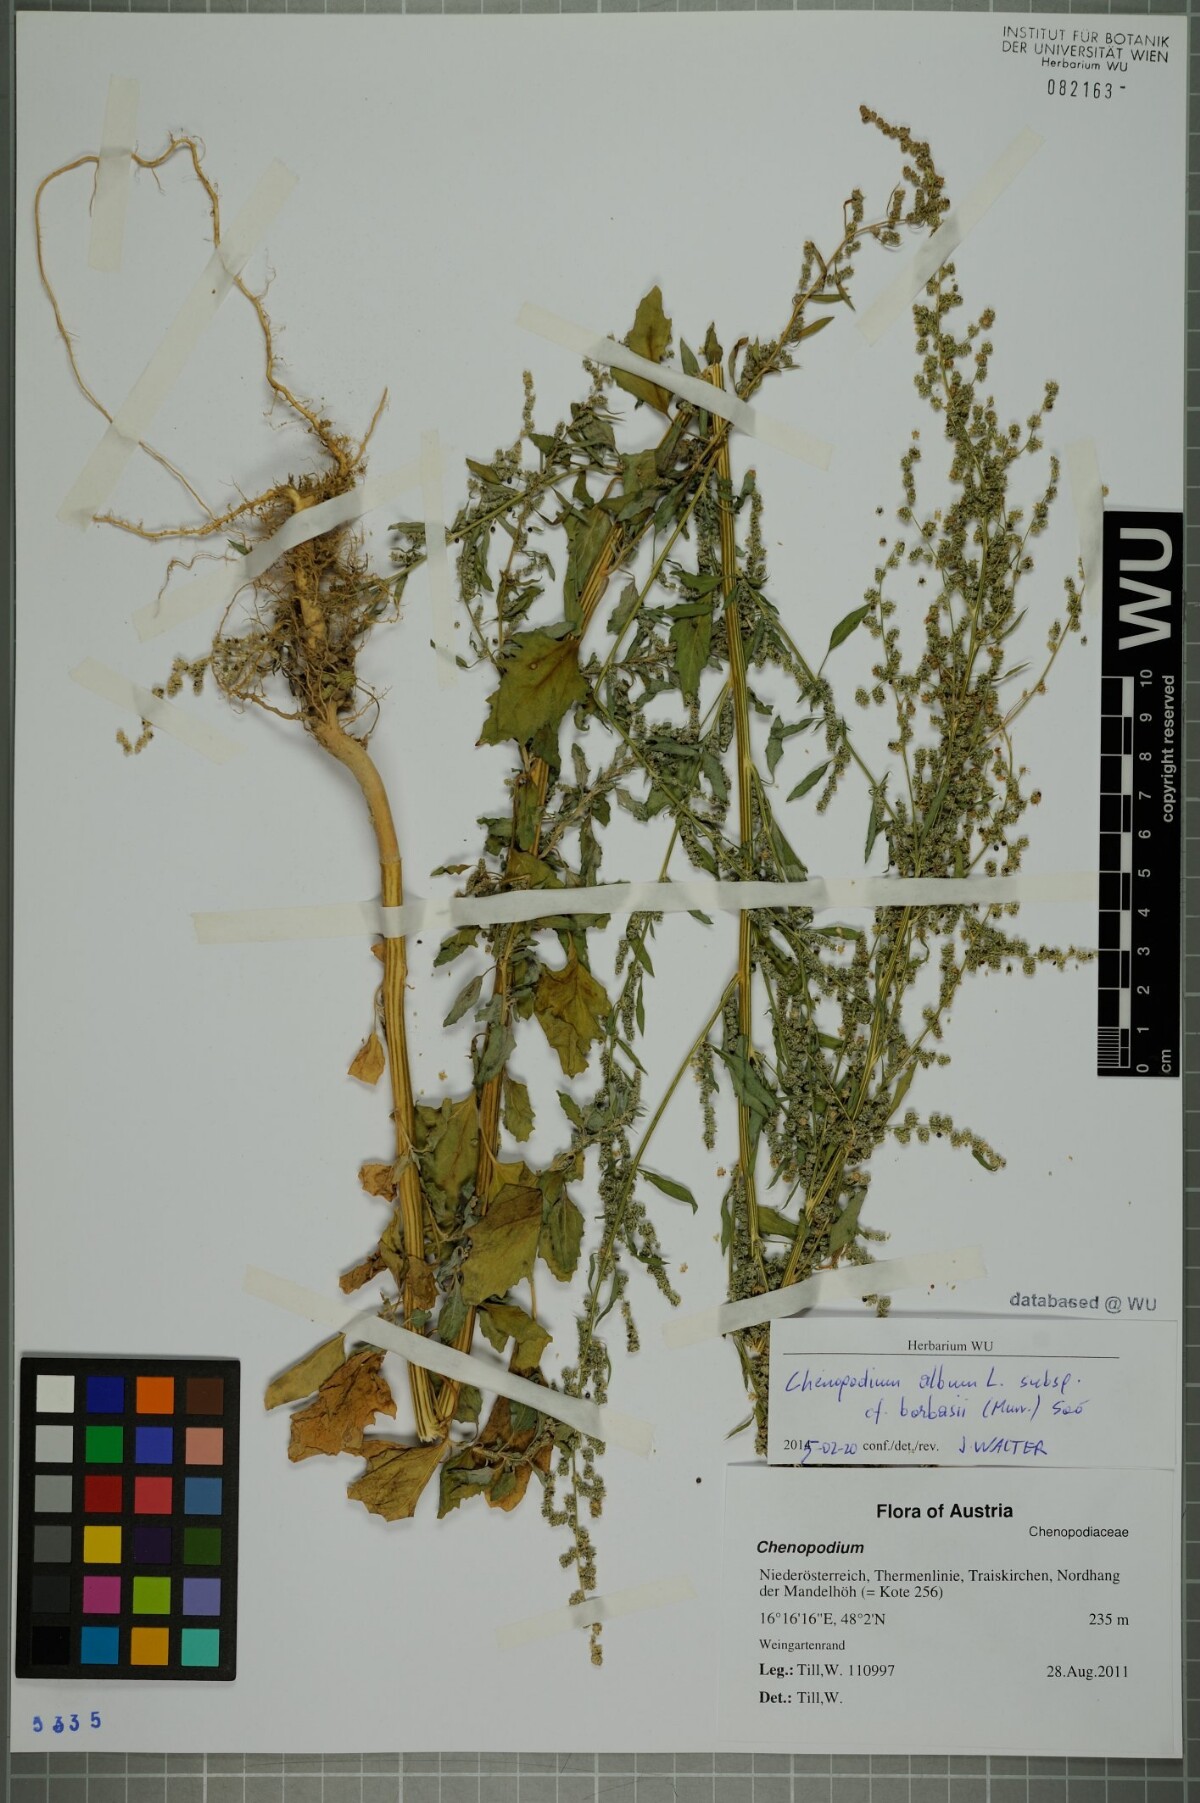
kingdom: Plantae
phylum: Tracheophyta
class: Magnoliopsida
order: Caryophyllales
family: Amaranthaceae
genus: Chenopodium
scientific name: Chenopodium borbasii
